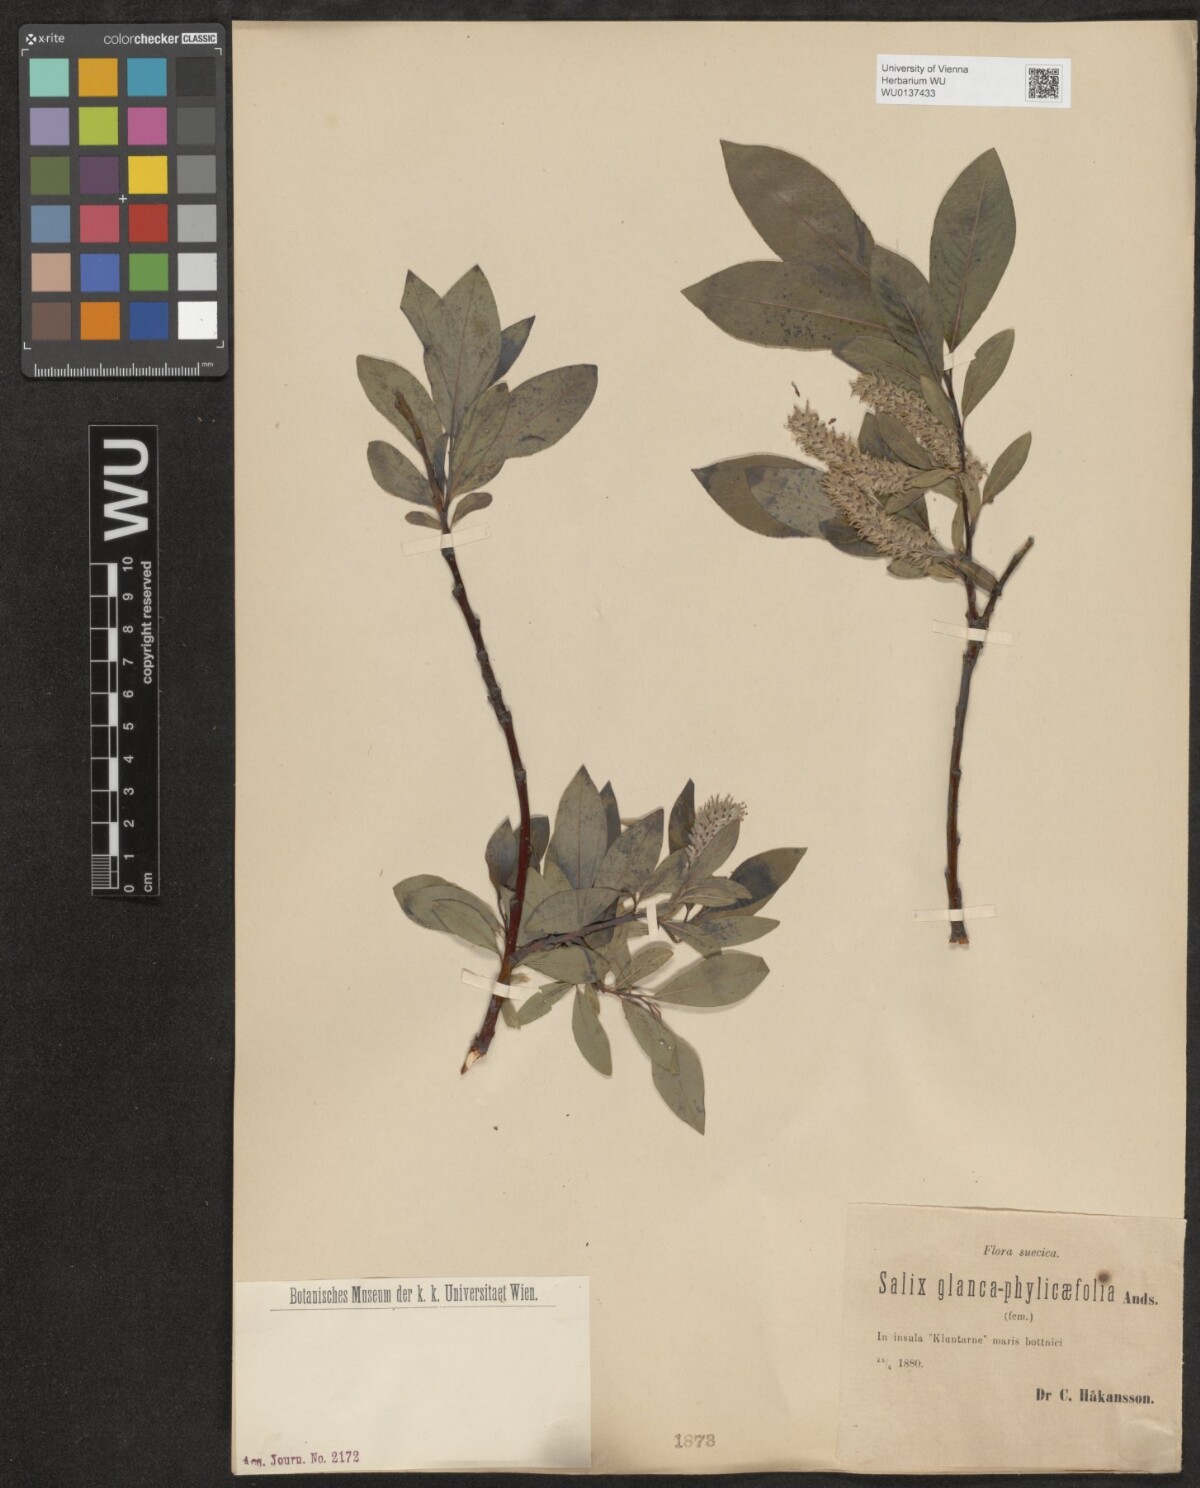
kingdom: Plantae
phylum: Tracheophyta
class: Magnoliopsida
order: Malpighiales
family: Salicaceae
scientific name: Salicaceae
